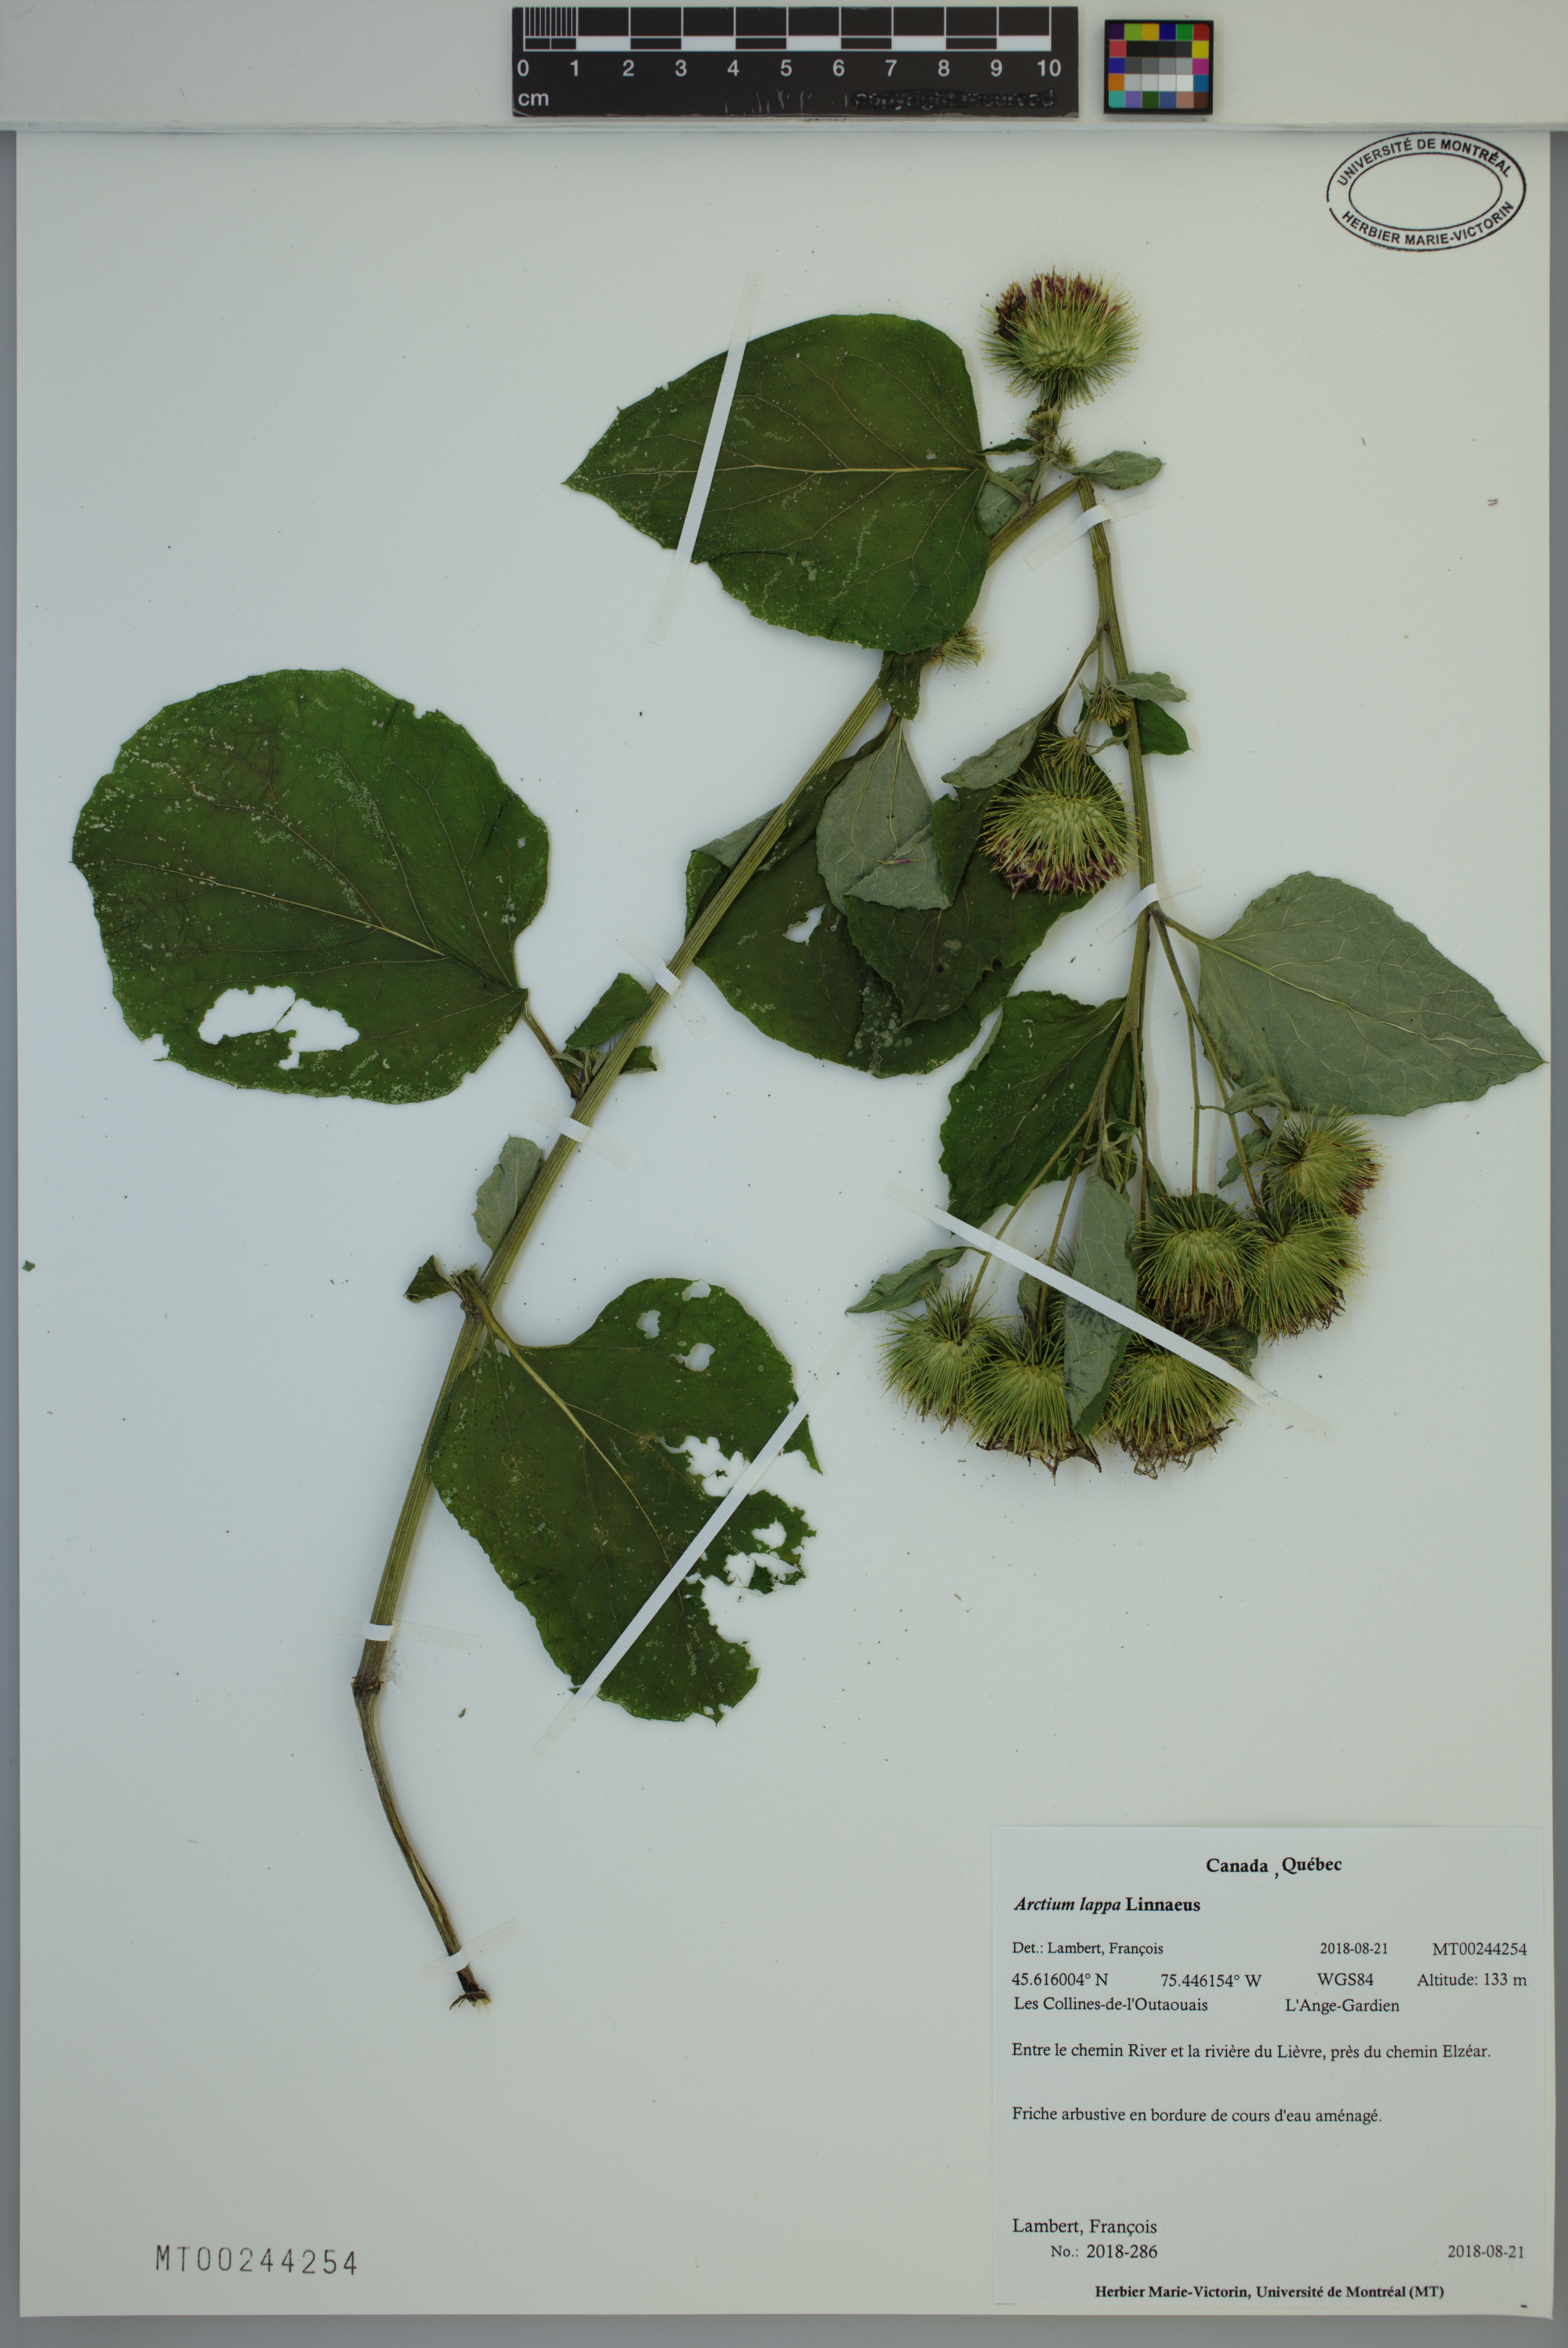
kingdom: Plantae
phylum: Tracheophyta
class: Magnoliopsida
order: Asterales
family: Asteraceae
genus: Arctium
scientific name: Arctium lappa
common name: Greater burdock
